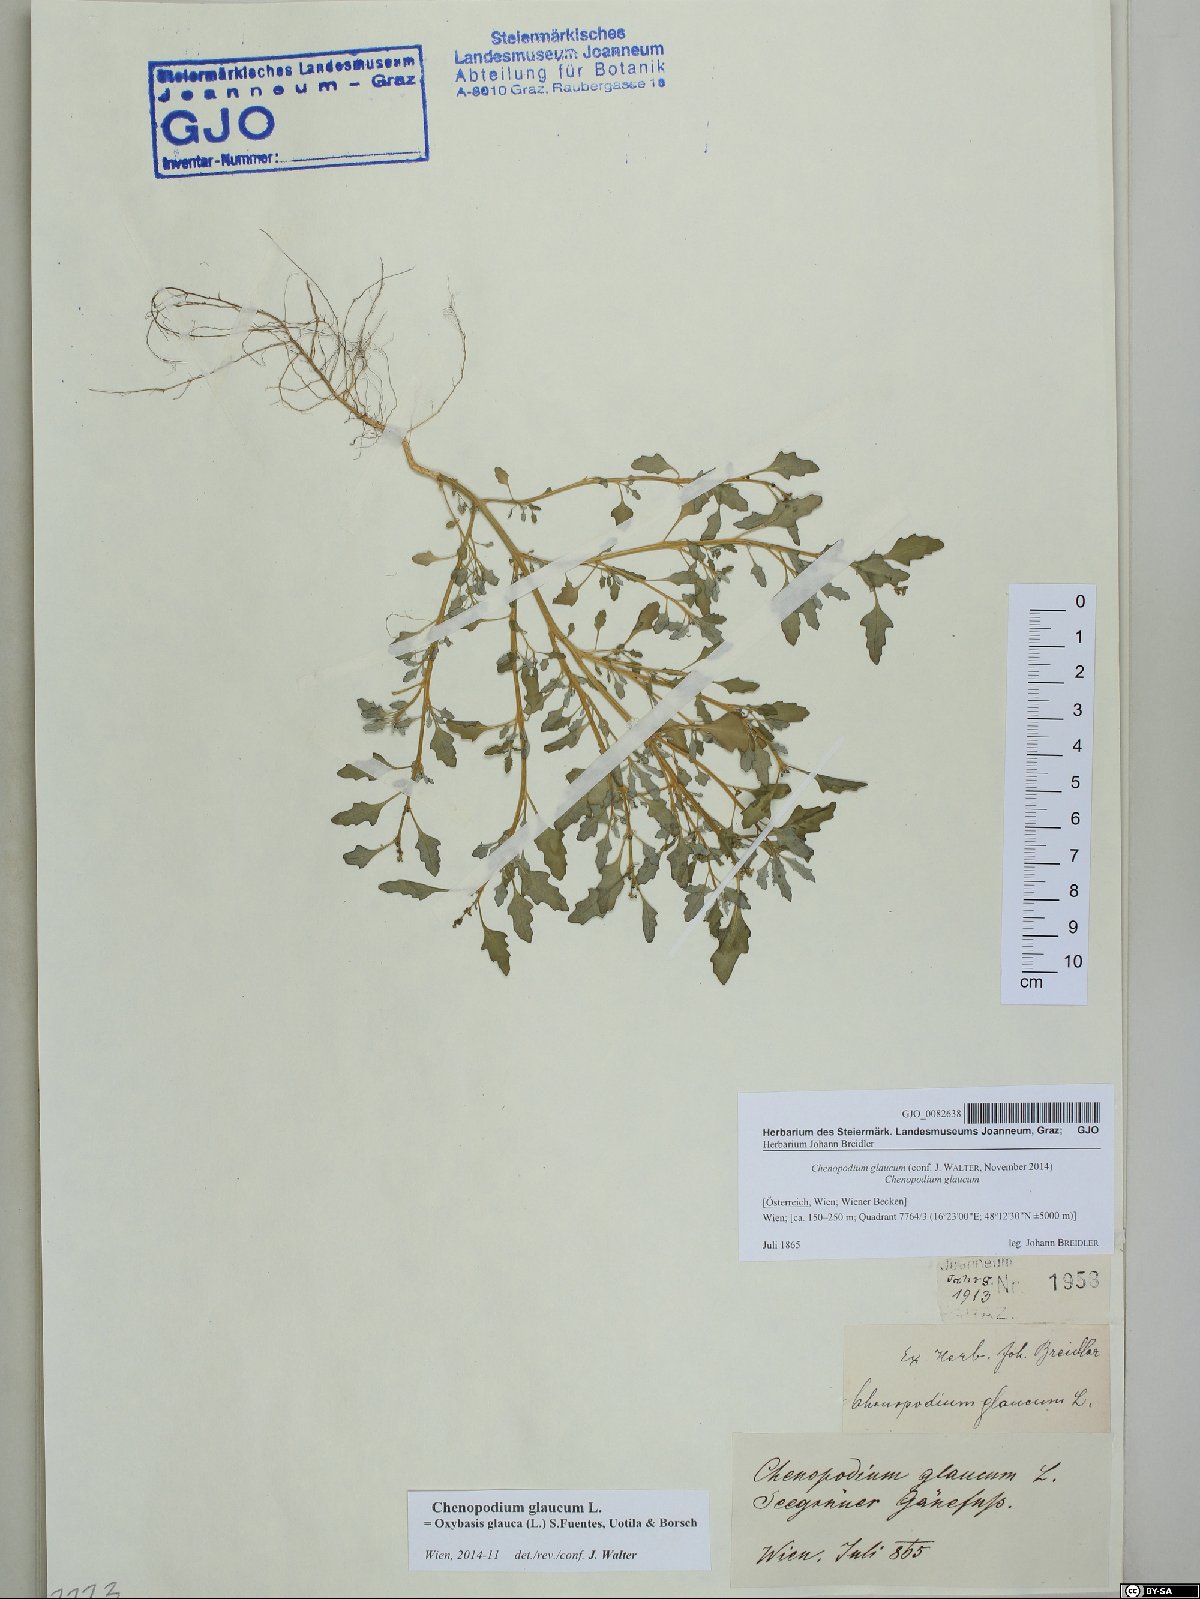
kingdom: Plantae
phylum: Tracheophyta
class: Magnoliopsida
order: Caryophyllales
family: Amaranthaceae
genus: Oxybasis
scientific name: Oxybasis glauca
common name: Glaucous goosefoot
